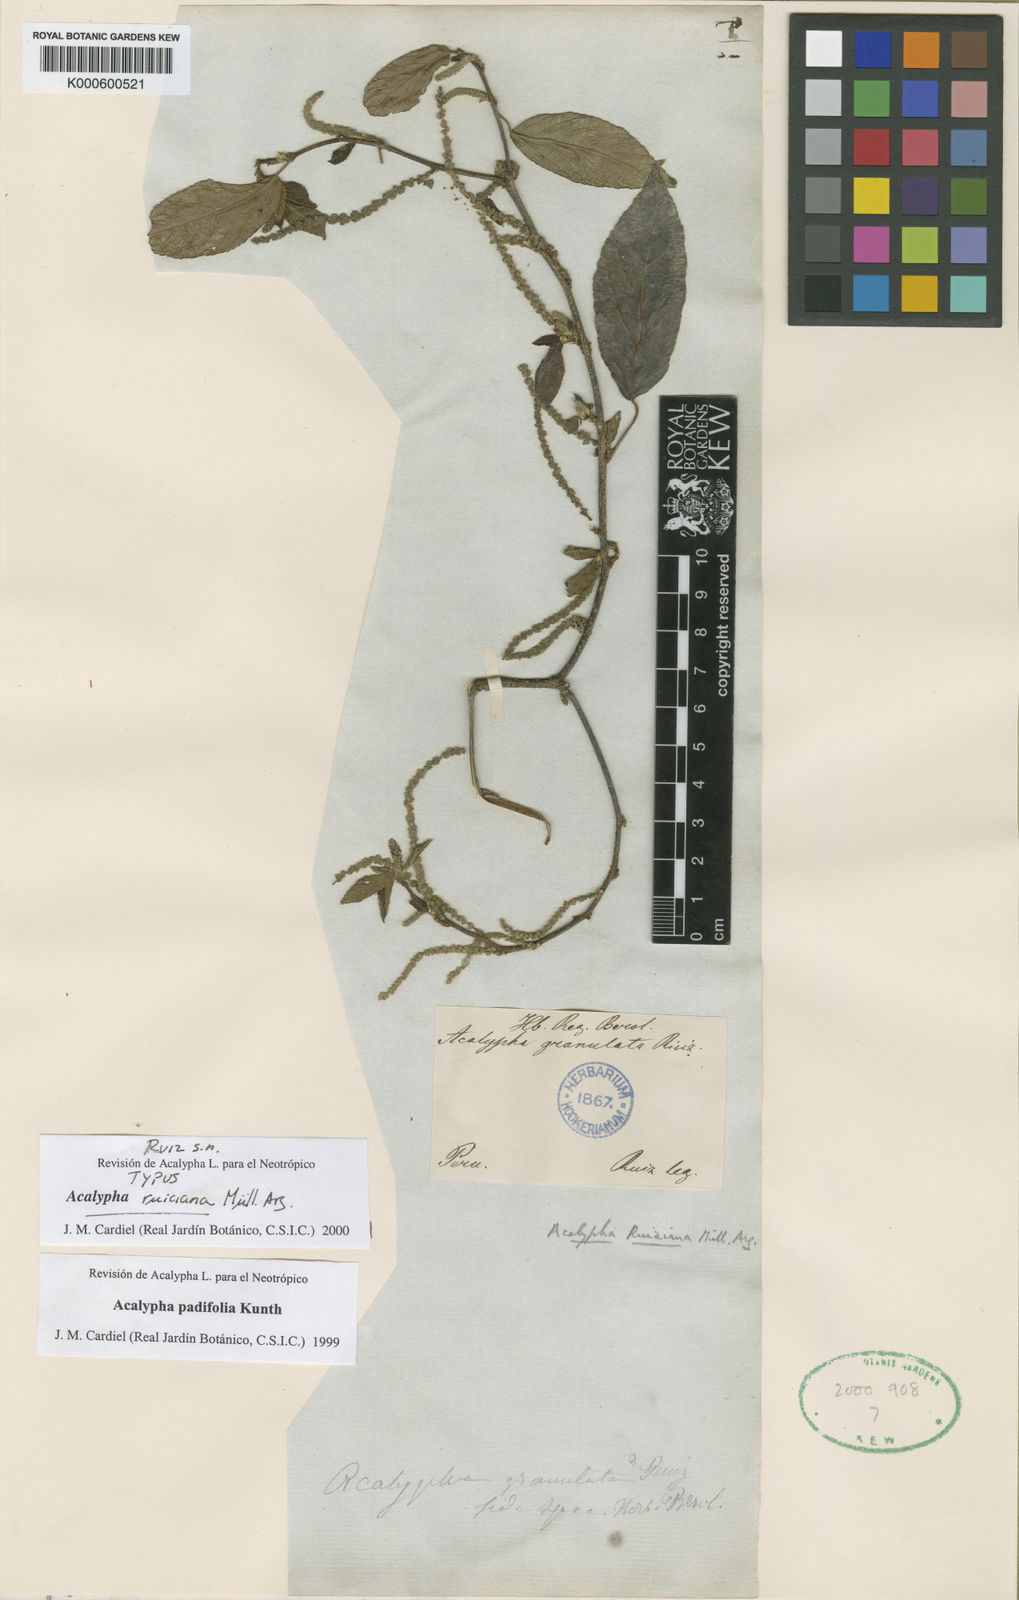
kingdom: Plantae
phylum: Tracheophyta
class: Magnoliopsida
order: Malpighiales
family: Euphorbiaceae
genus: Acalypha
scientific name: Acalypha padifolia
